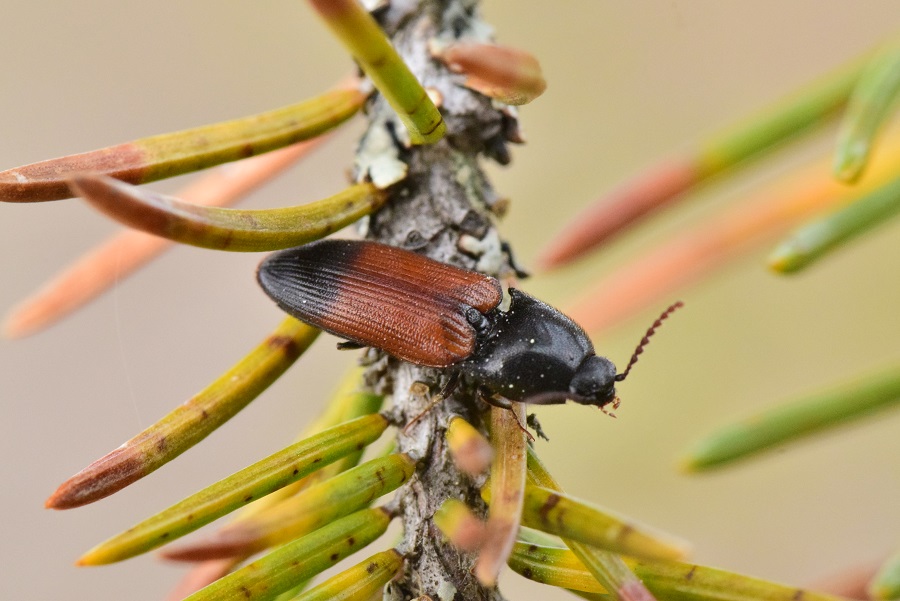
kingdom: Animalia
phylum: Arthropoda
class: Insecta
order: Coleoptera
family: Elateridae
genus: Ampedus
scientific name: Ampedus balteatus
